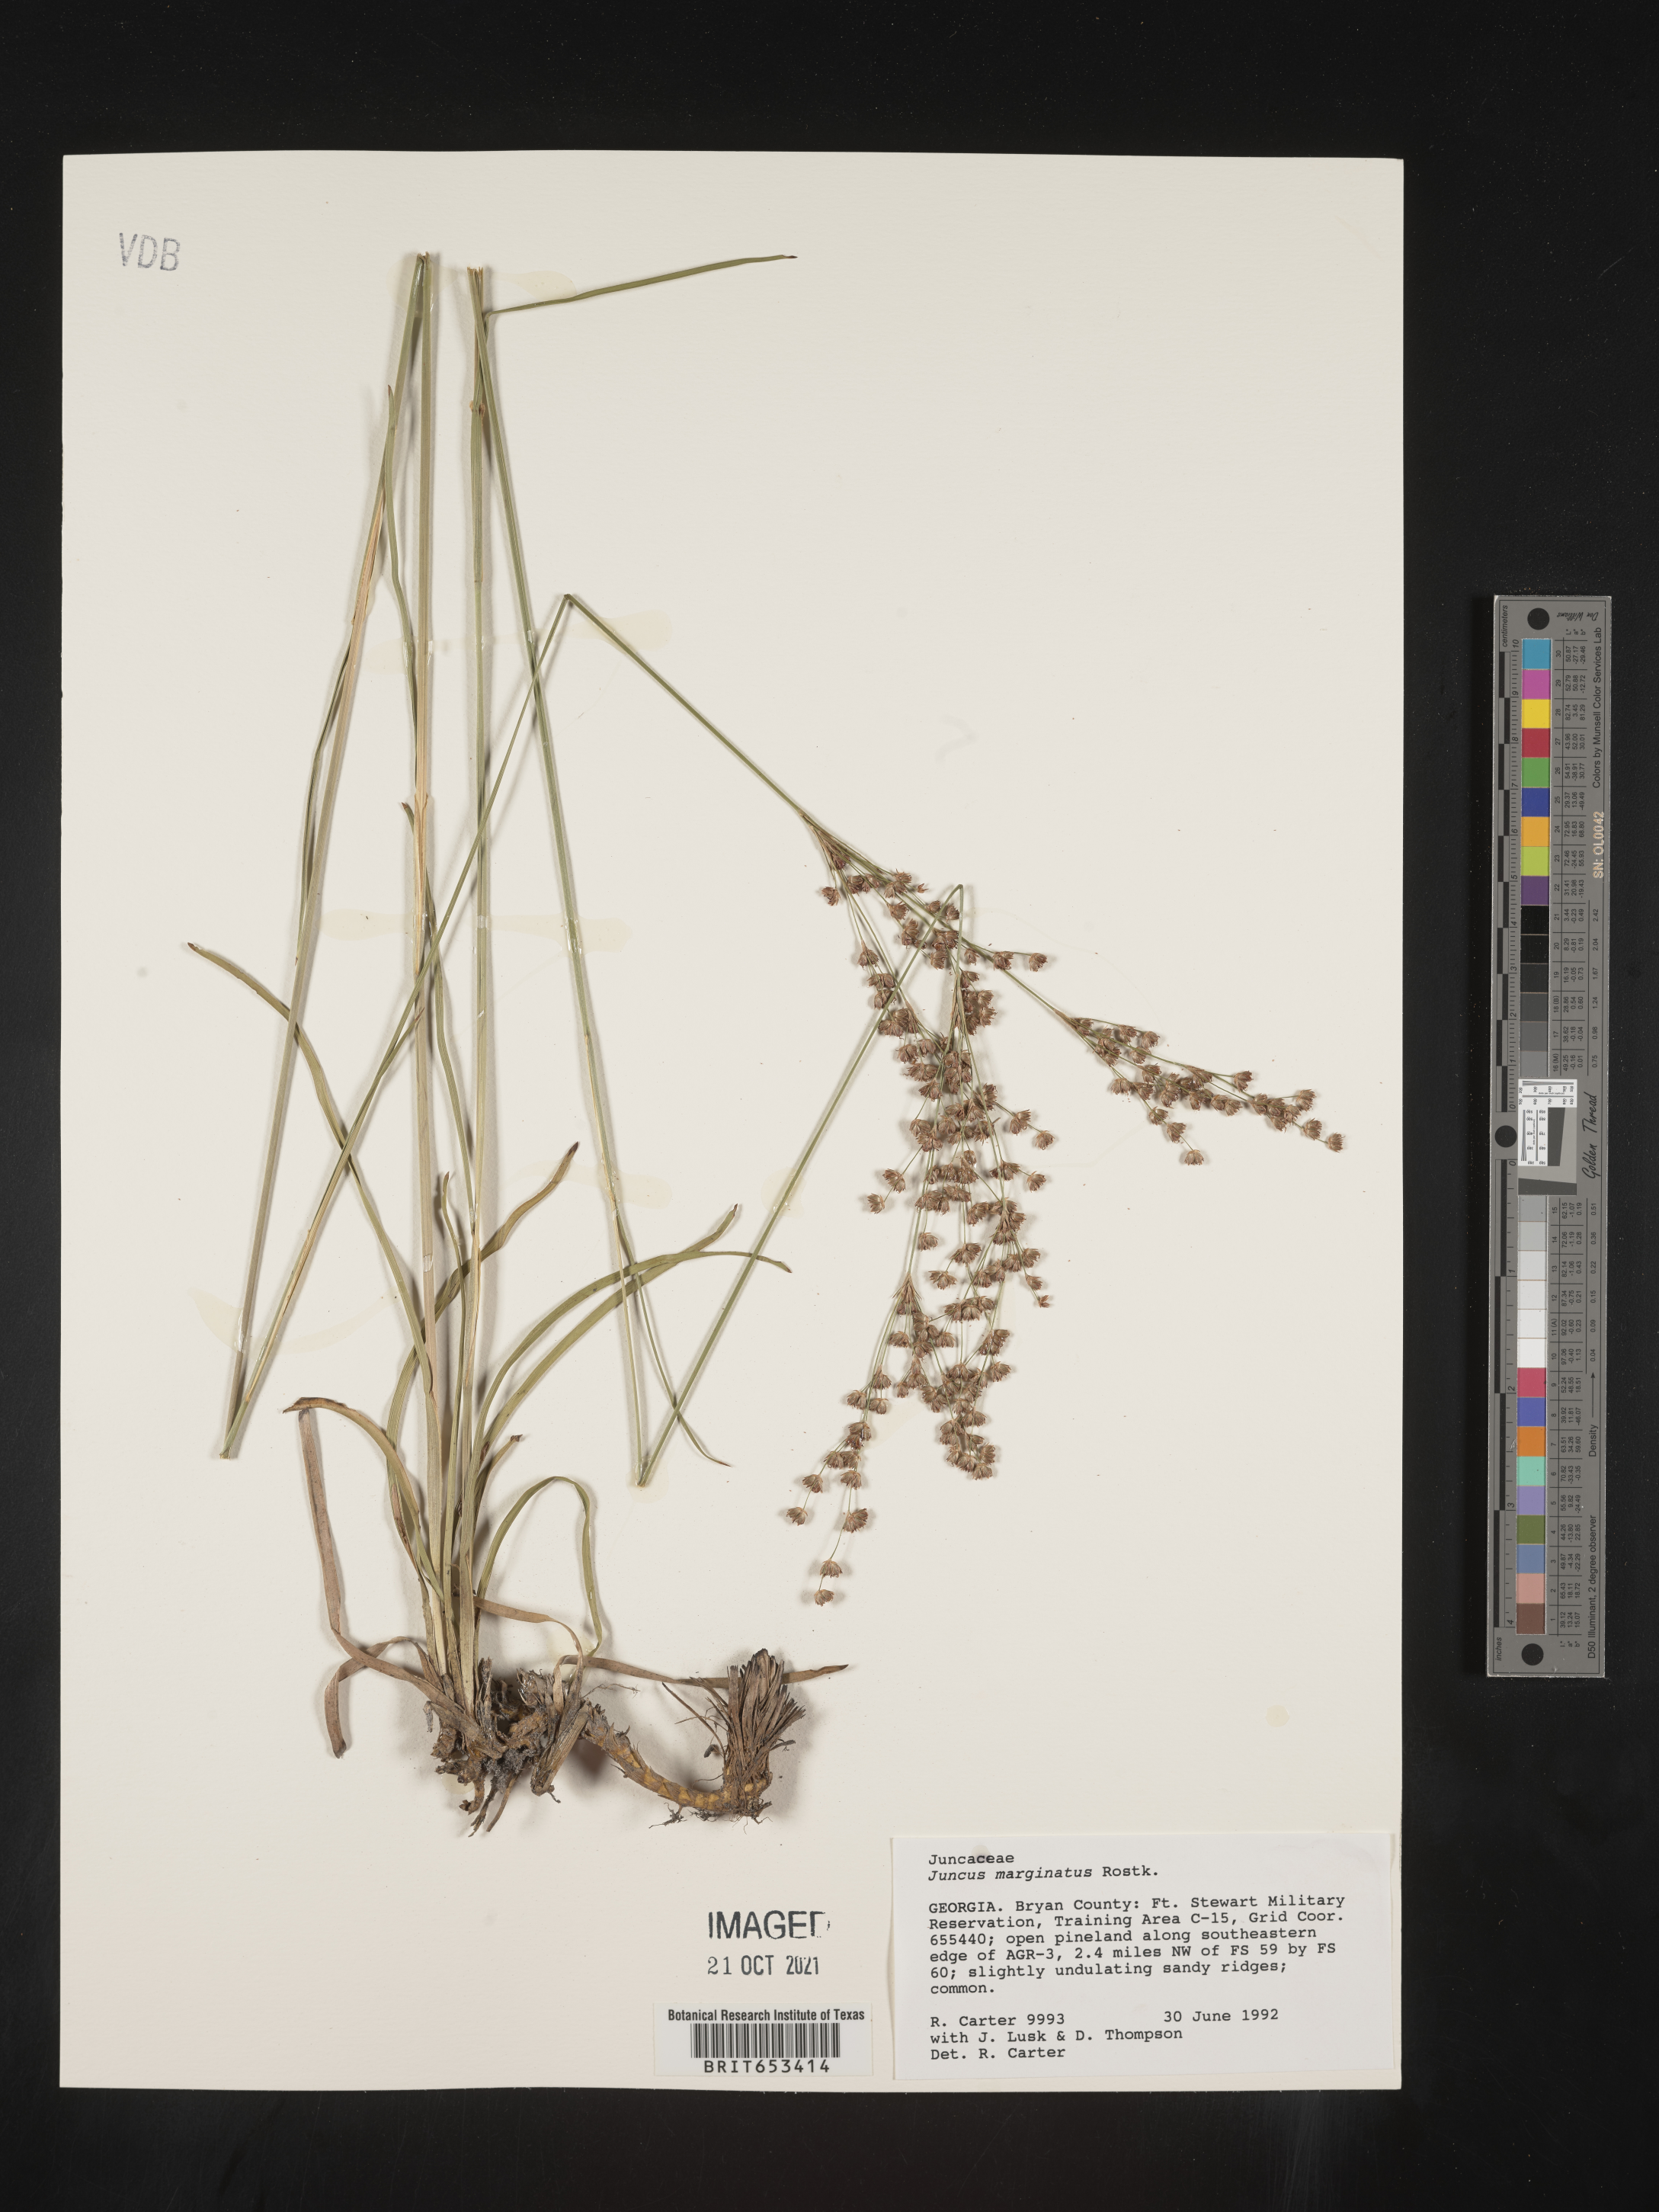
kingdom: Plantae
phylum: Tracheophyta
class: Liliopsida
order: Poales
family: Juncaceae
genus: Juncus
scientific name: Juncus marginatus
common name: Grass-leaf rush
